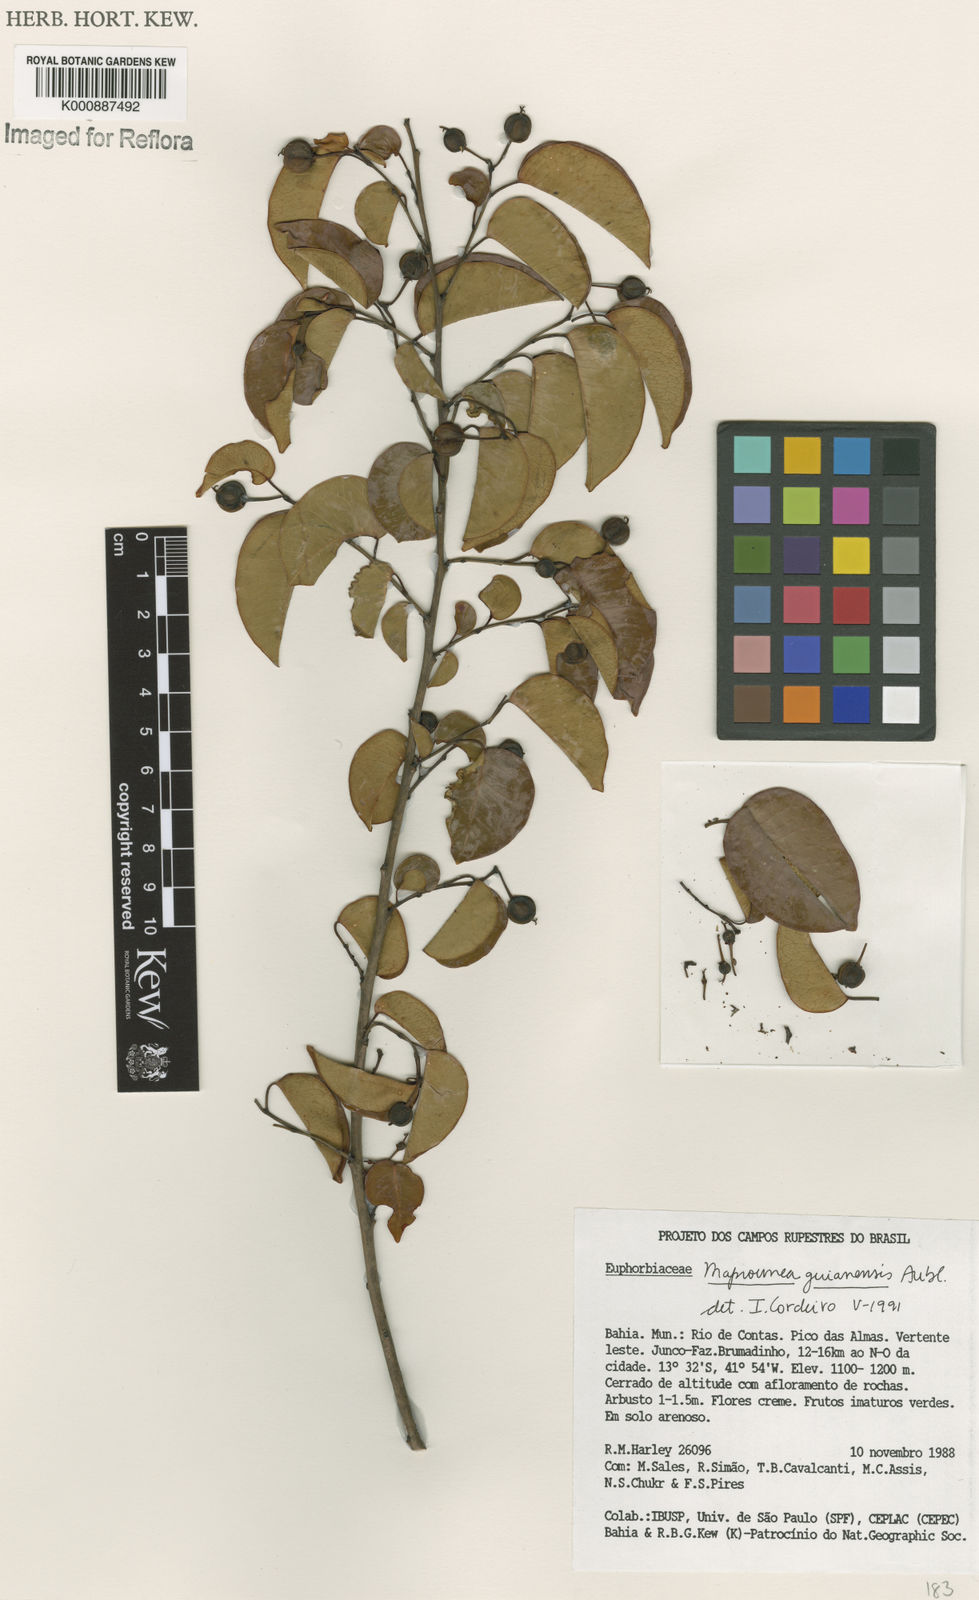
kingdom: Plantae
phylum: Tracheophyta
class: Magnoliopsida
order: Malpighiales
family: Euphorbiaceae
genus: Maprounea
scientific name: Maprounea guianensis
